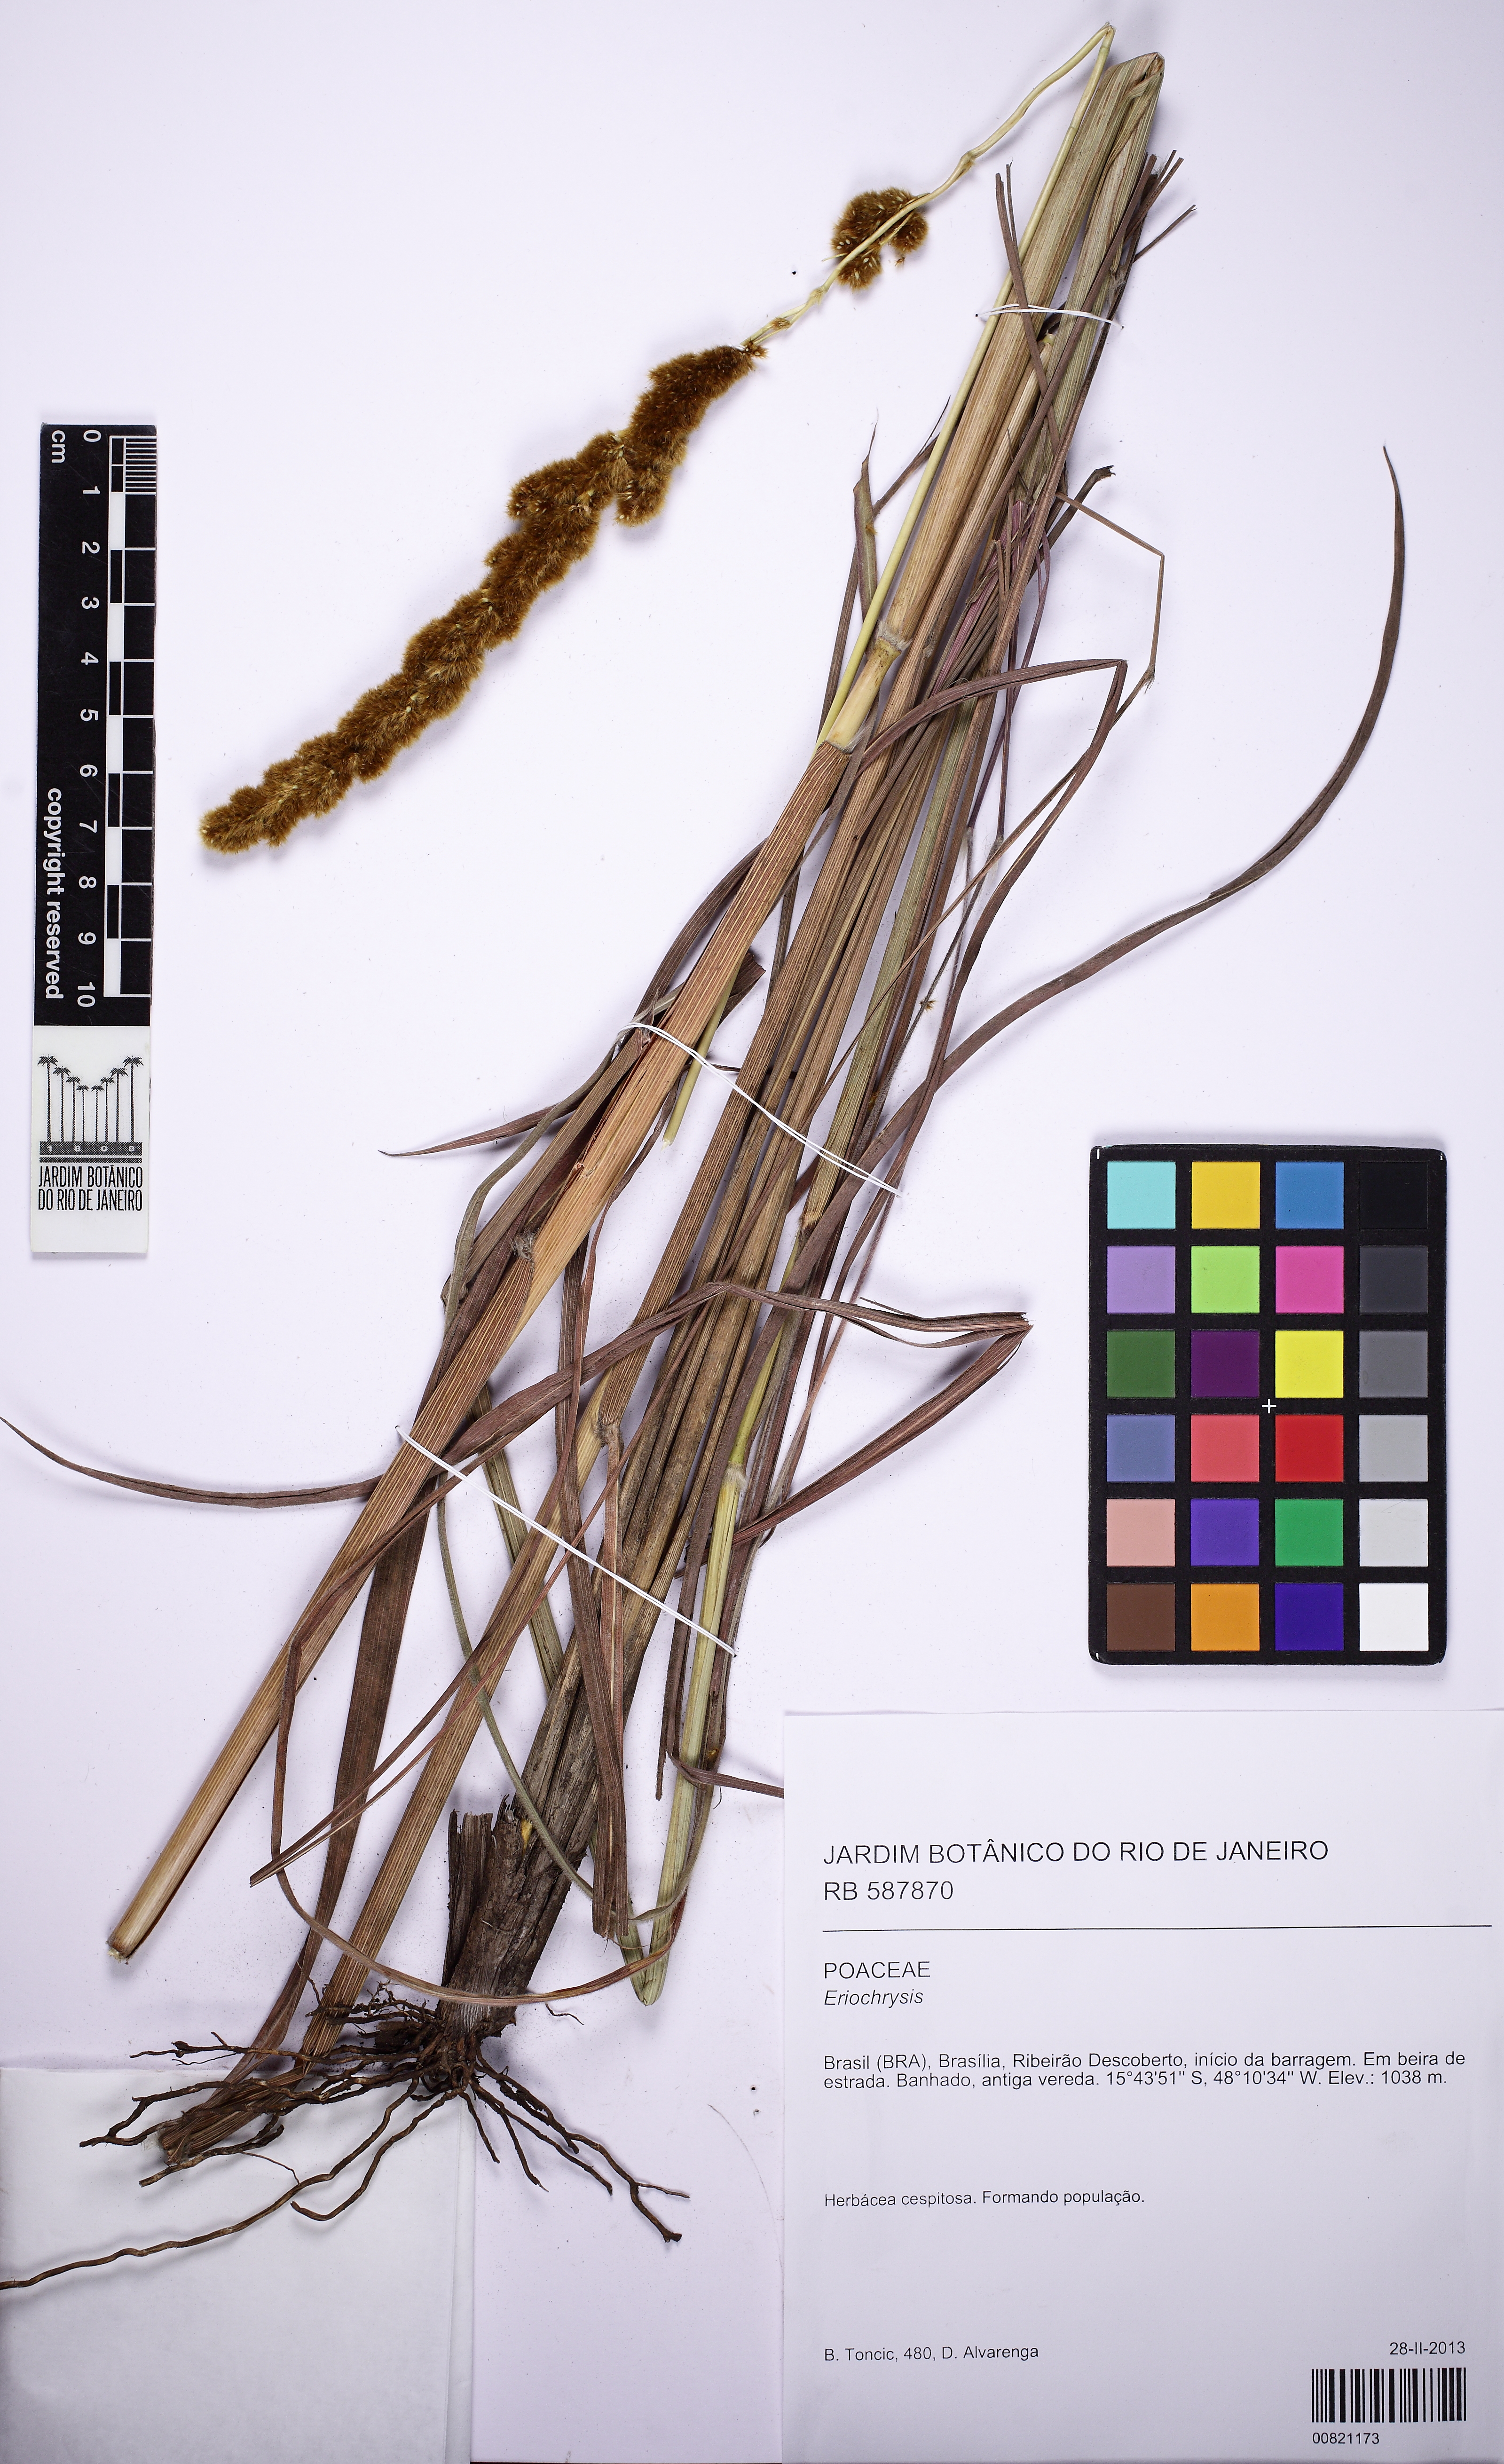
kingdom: Plantae
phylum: Tracheophyta
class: Liliopsida
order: Poales
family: Poaceae
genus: Eriochrysis
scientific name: Eriochrysis
